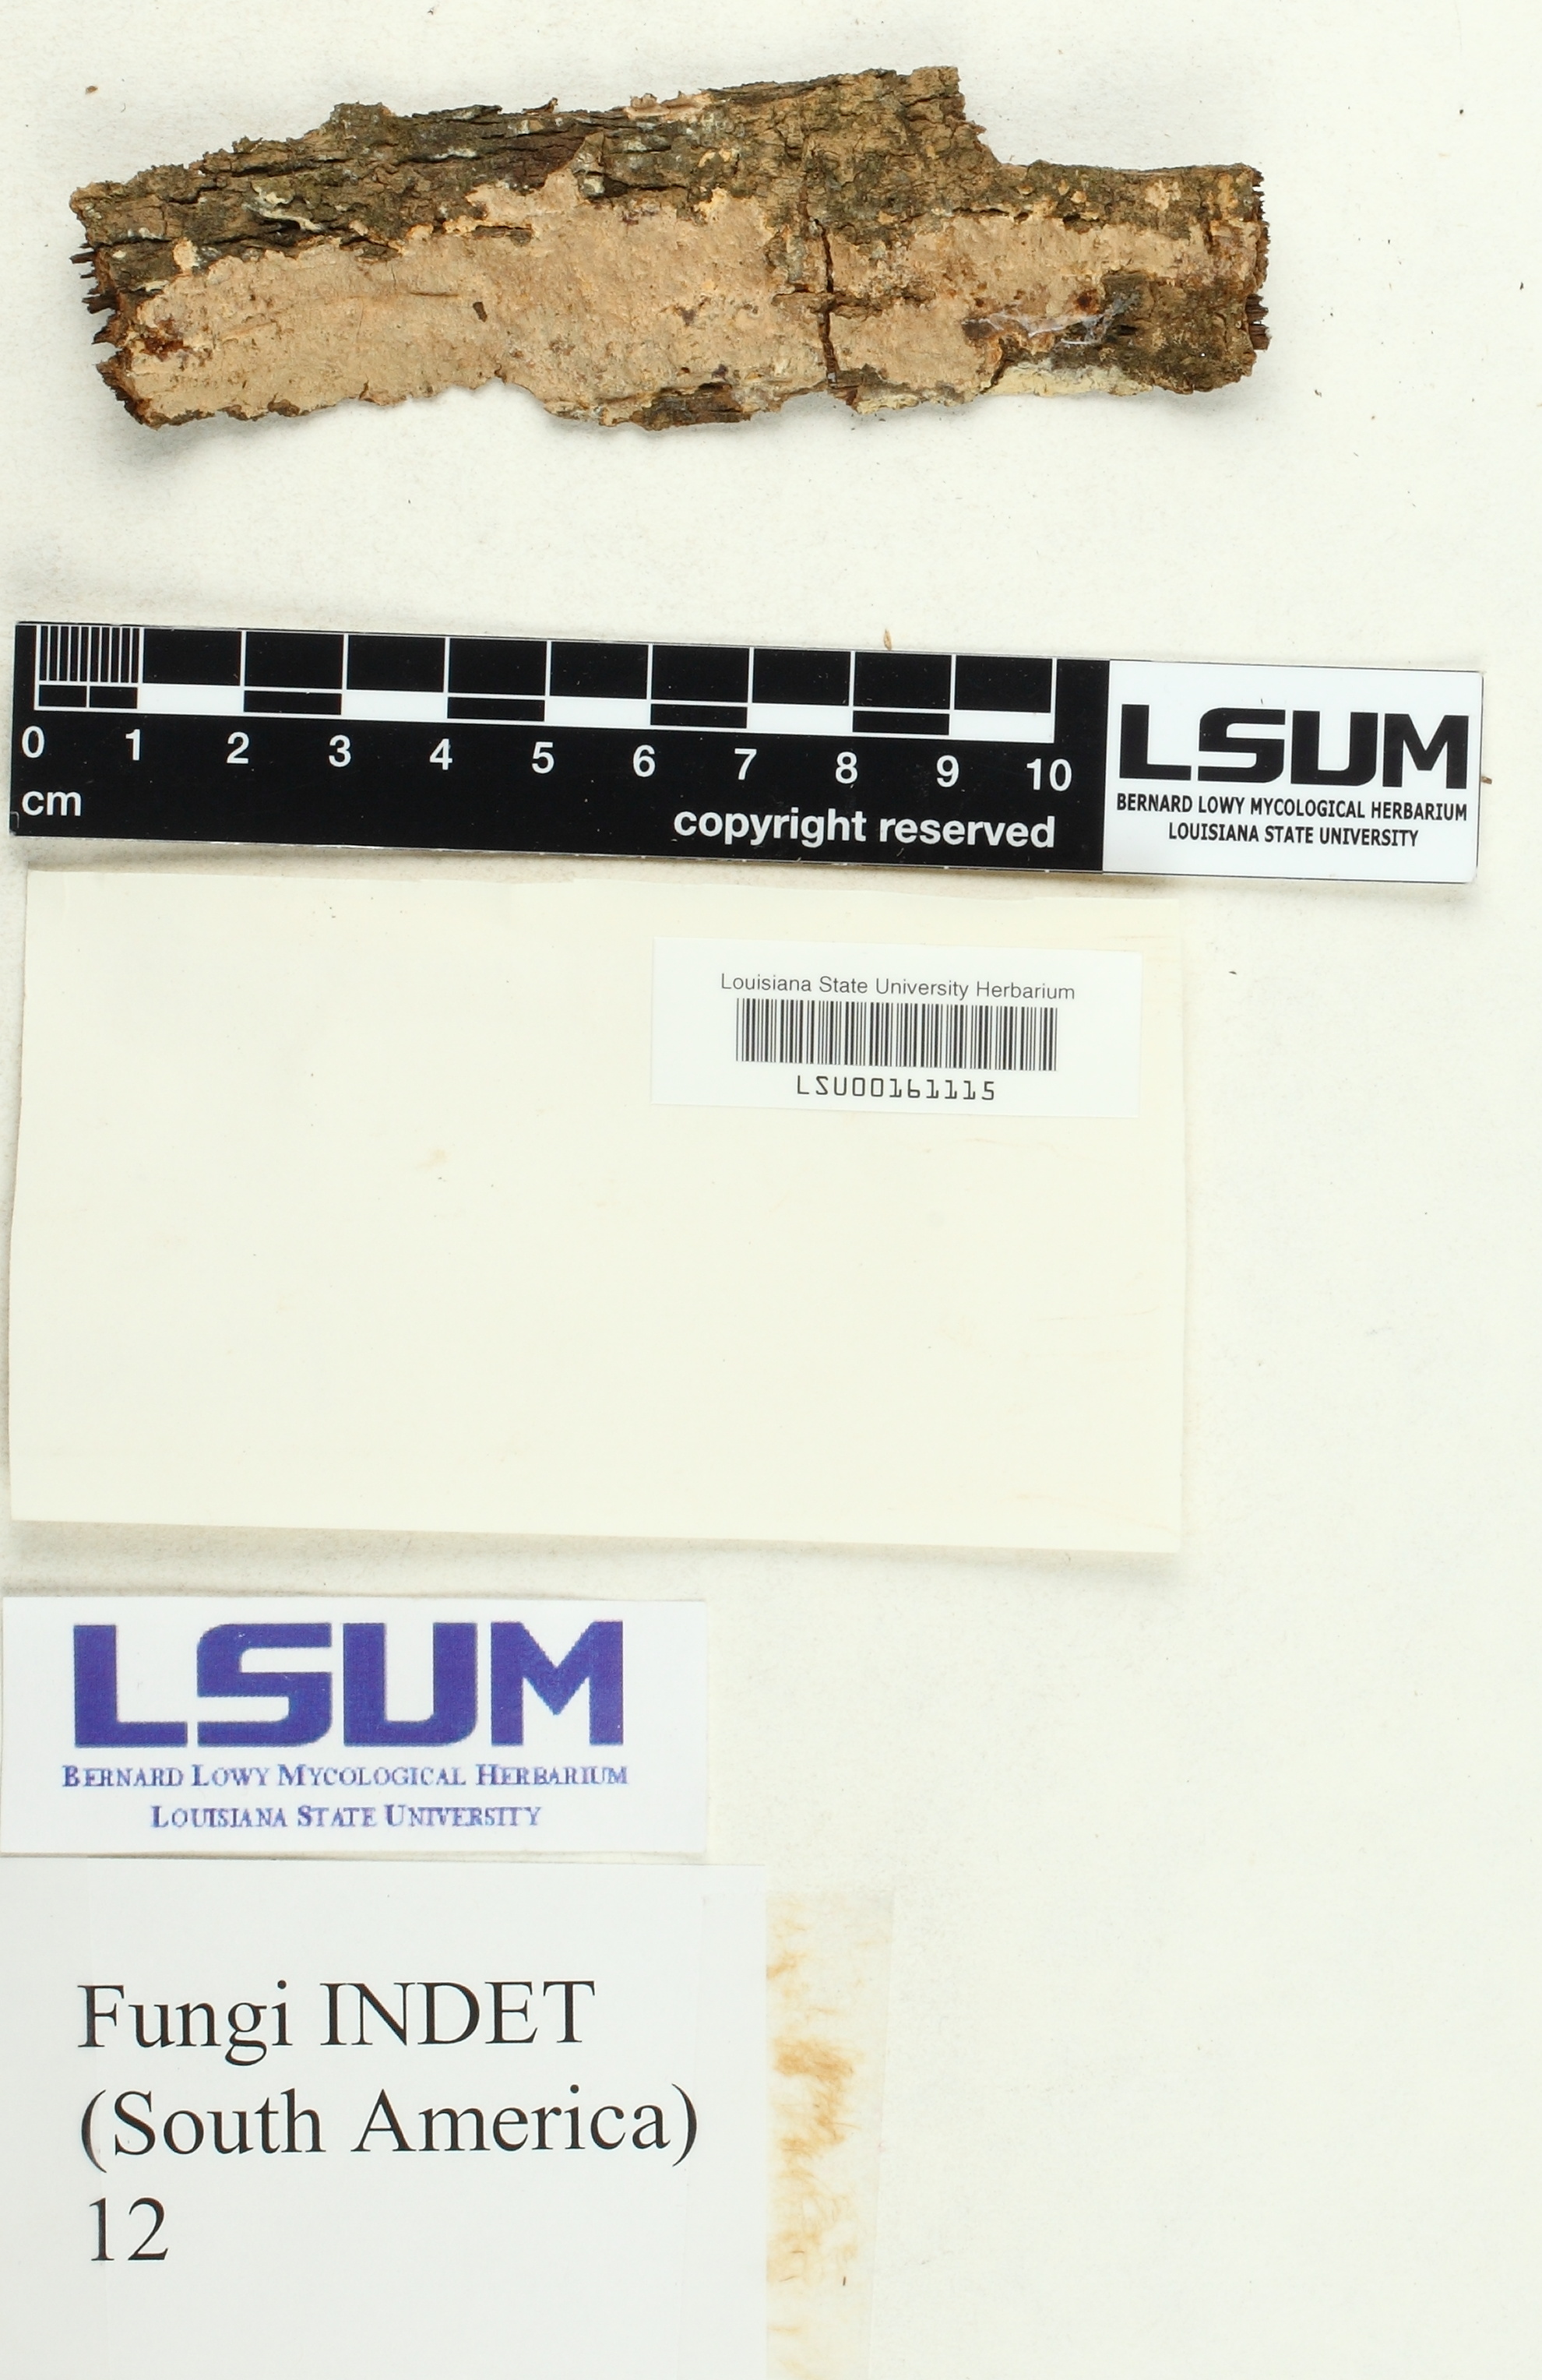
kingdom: Fungi
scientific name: Fungi
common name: Fungi
